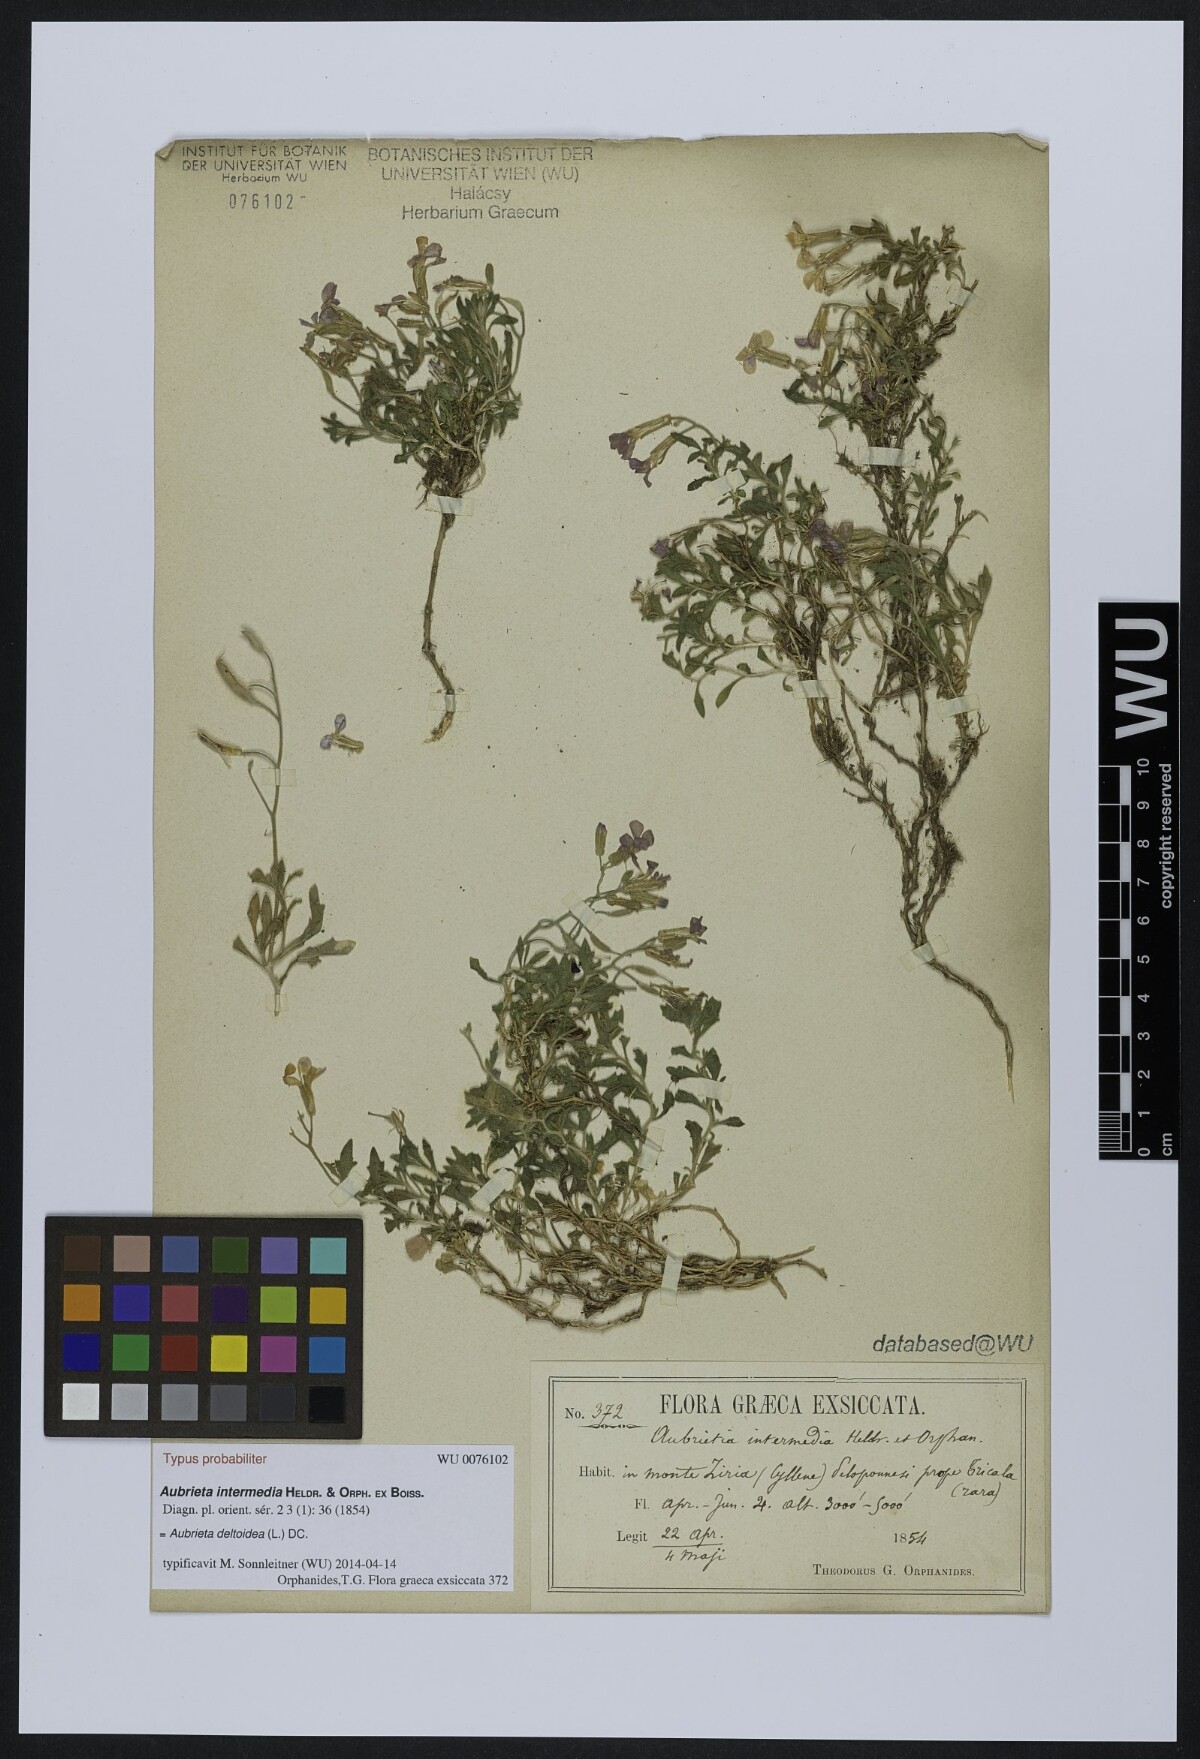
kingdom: Plantae
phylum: Tracheophyta
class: Magnoliopsida
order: Brassicales
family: Brassicaceae
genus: Aubrieta
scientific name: Aubrieta deltoidea
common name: Aubretia
